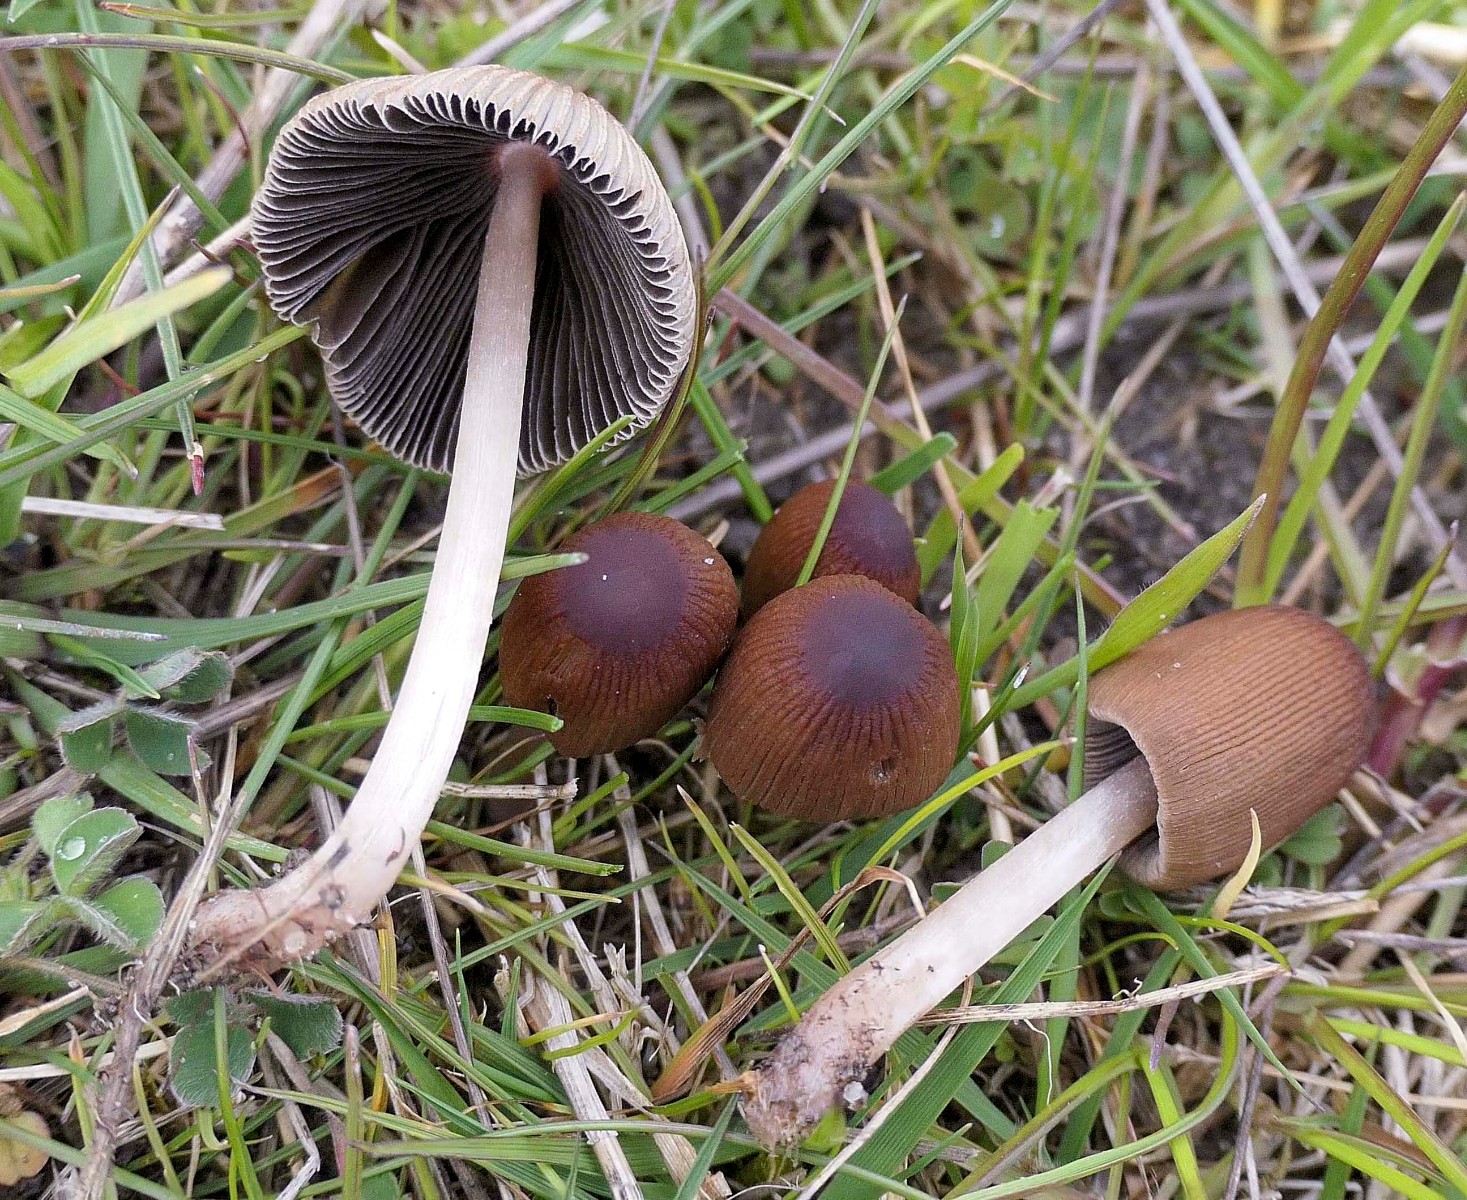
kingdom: Fungi
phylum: Basidiomycota
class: Agaricomycetes
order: Agaricales
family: Psathyrellaceae
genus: Parasola
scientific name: Parasola
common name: hjulhat
